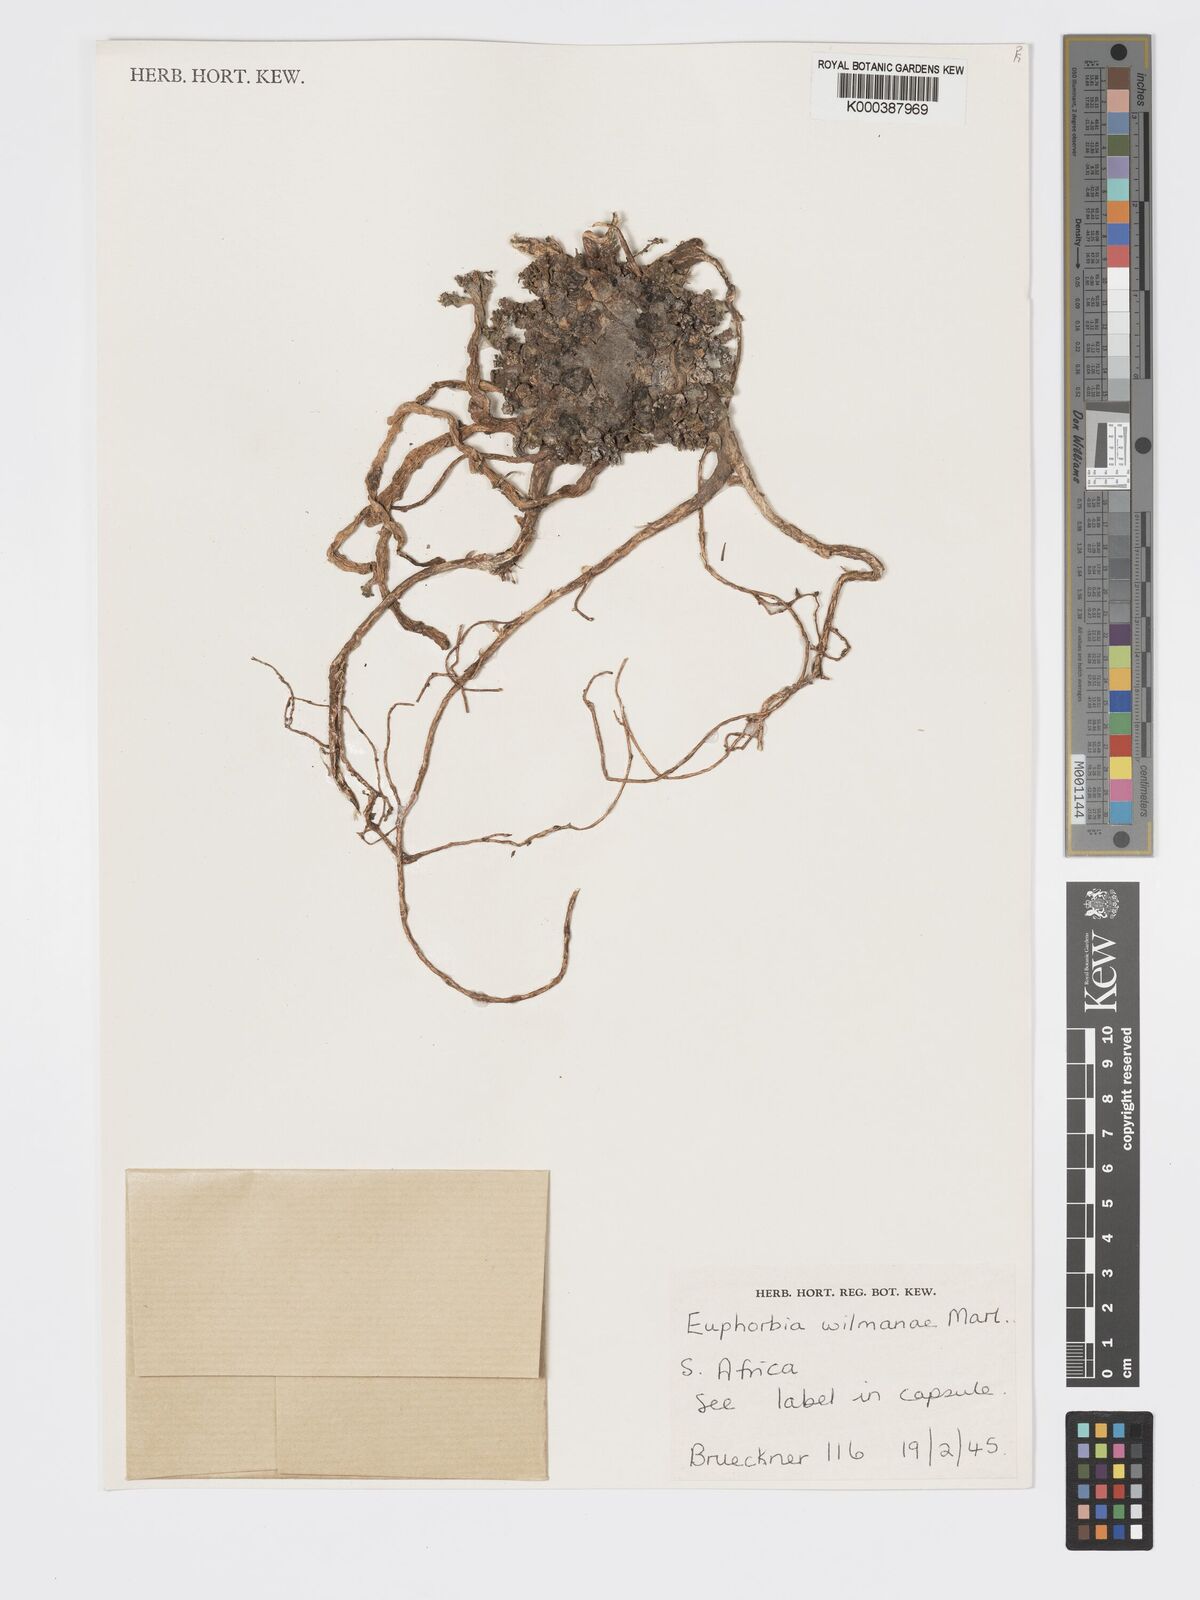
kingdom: Plantae
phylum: Tracheophyta
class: Magnoliopsida
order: Malpighiales
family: Euphorbiaceae
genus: Euphorbia
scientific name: Euphorbia patula
